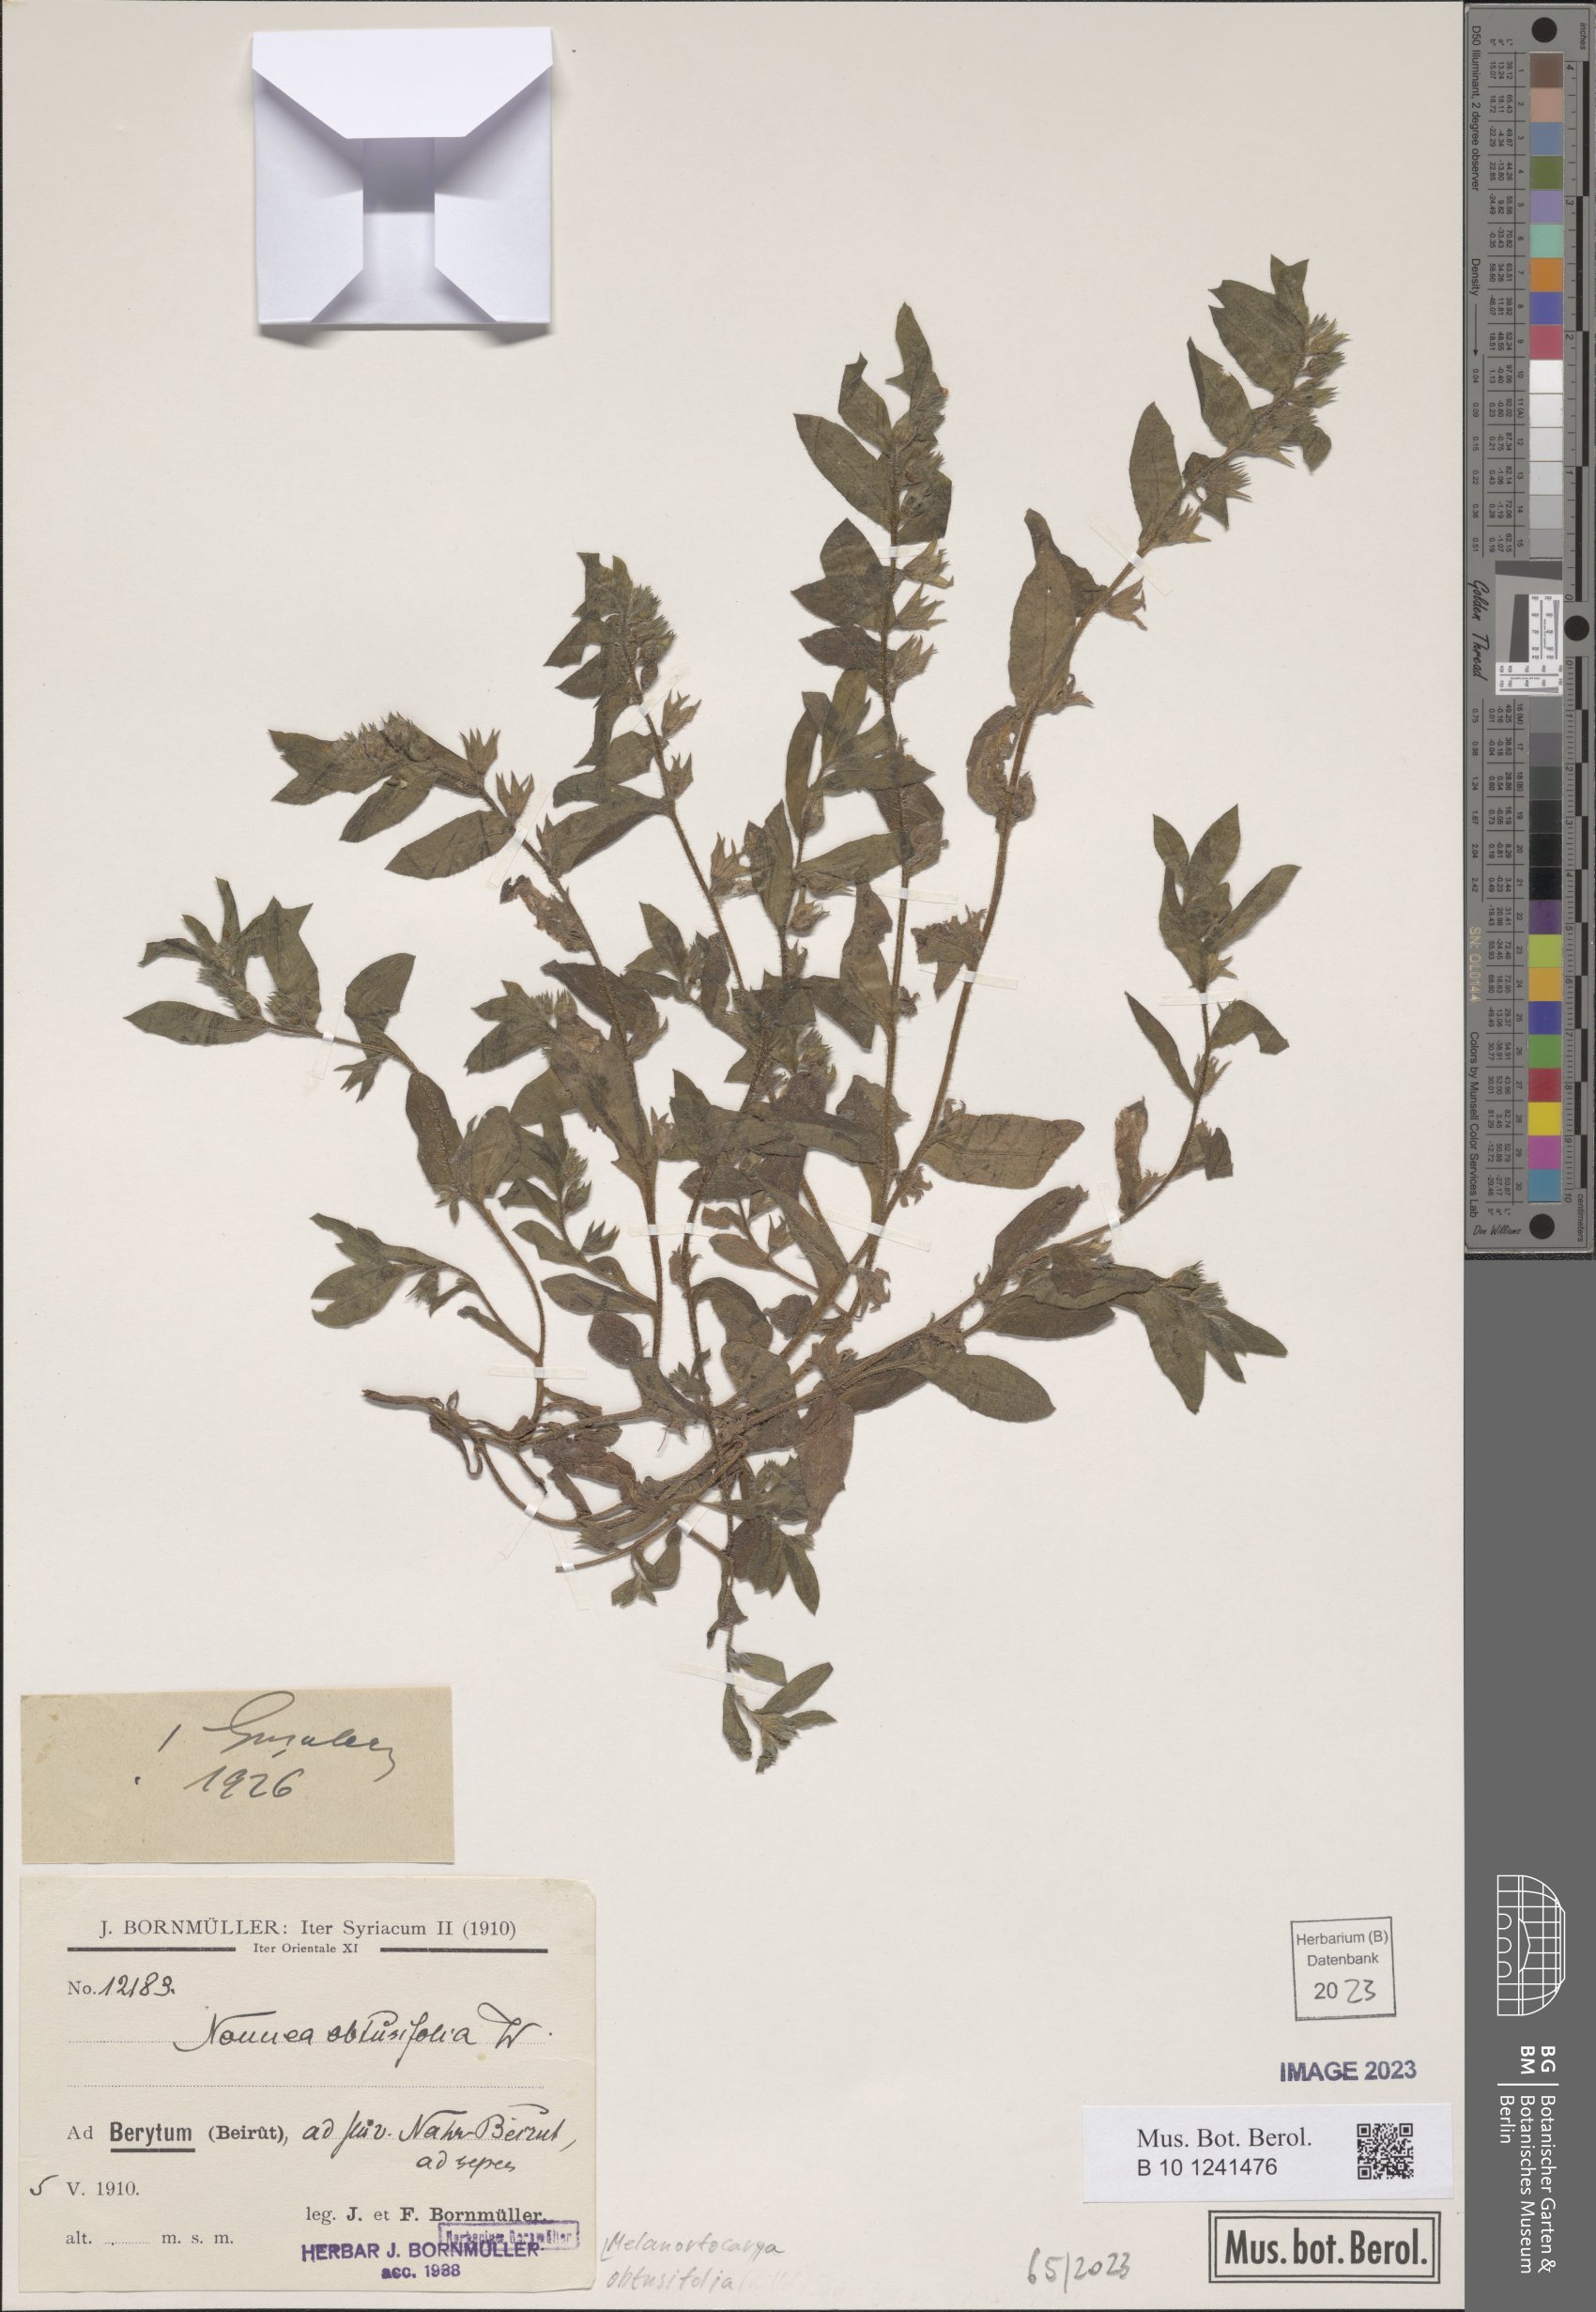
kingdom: Plantae
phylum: Tracheophyta
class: Magnoliopsida
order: Boraginales
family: Boraginaceae
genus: Melanortocarya
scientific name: Melanortocarya obtusifolia
